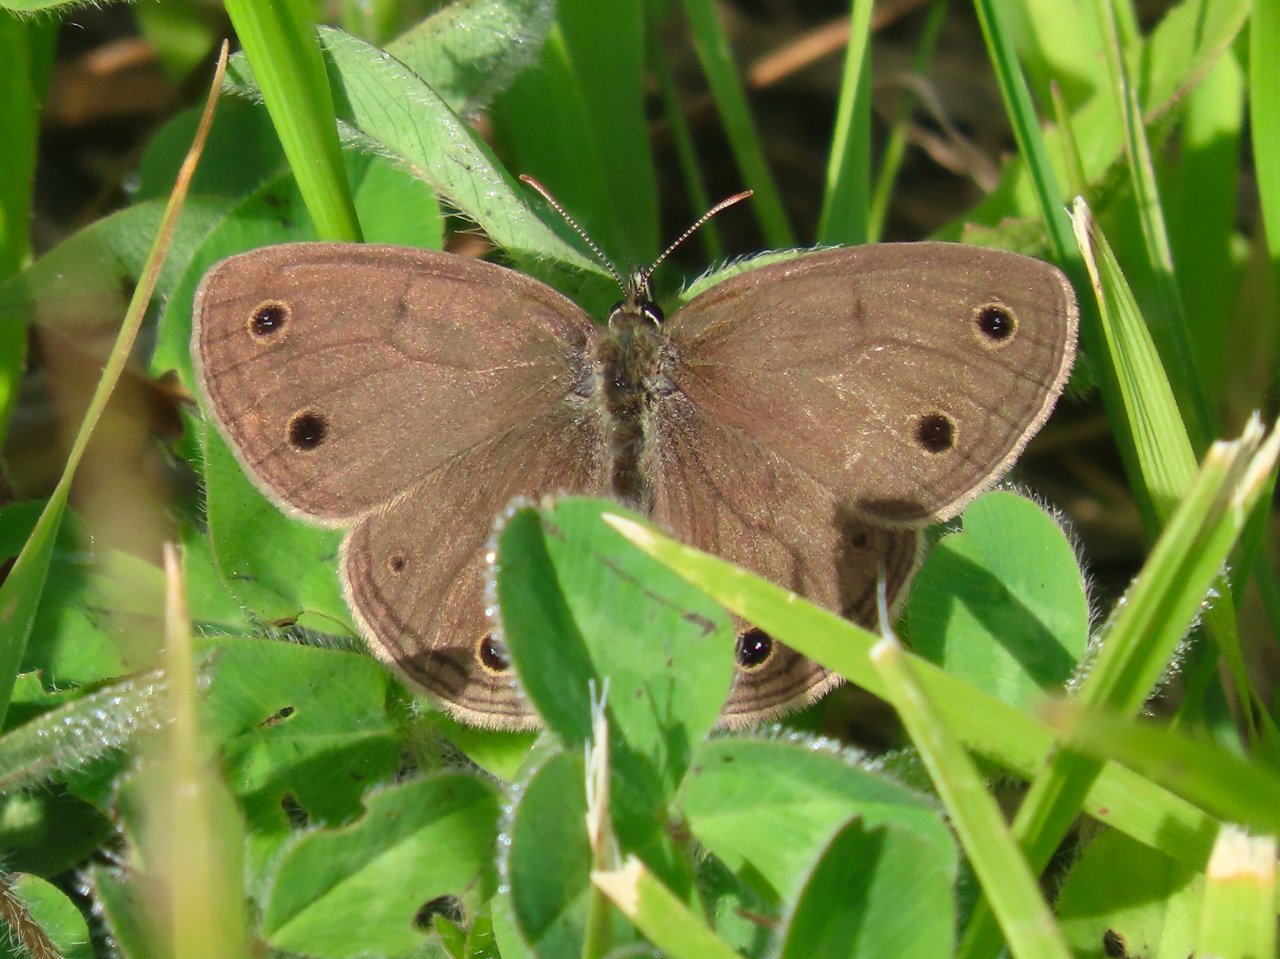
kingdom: Animalia
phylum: Arthropoda
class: Insecta
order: Lepidoptera
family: Nymphalidae
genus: Euptychia
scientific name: Euptychia cymela
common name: Little Wood Satyr
